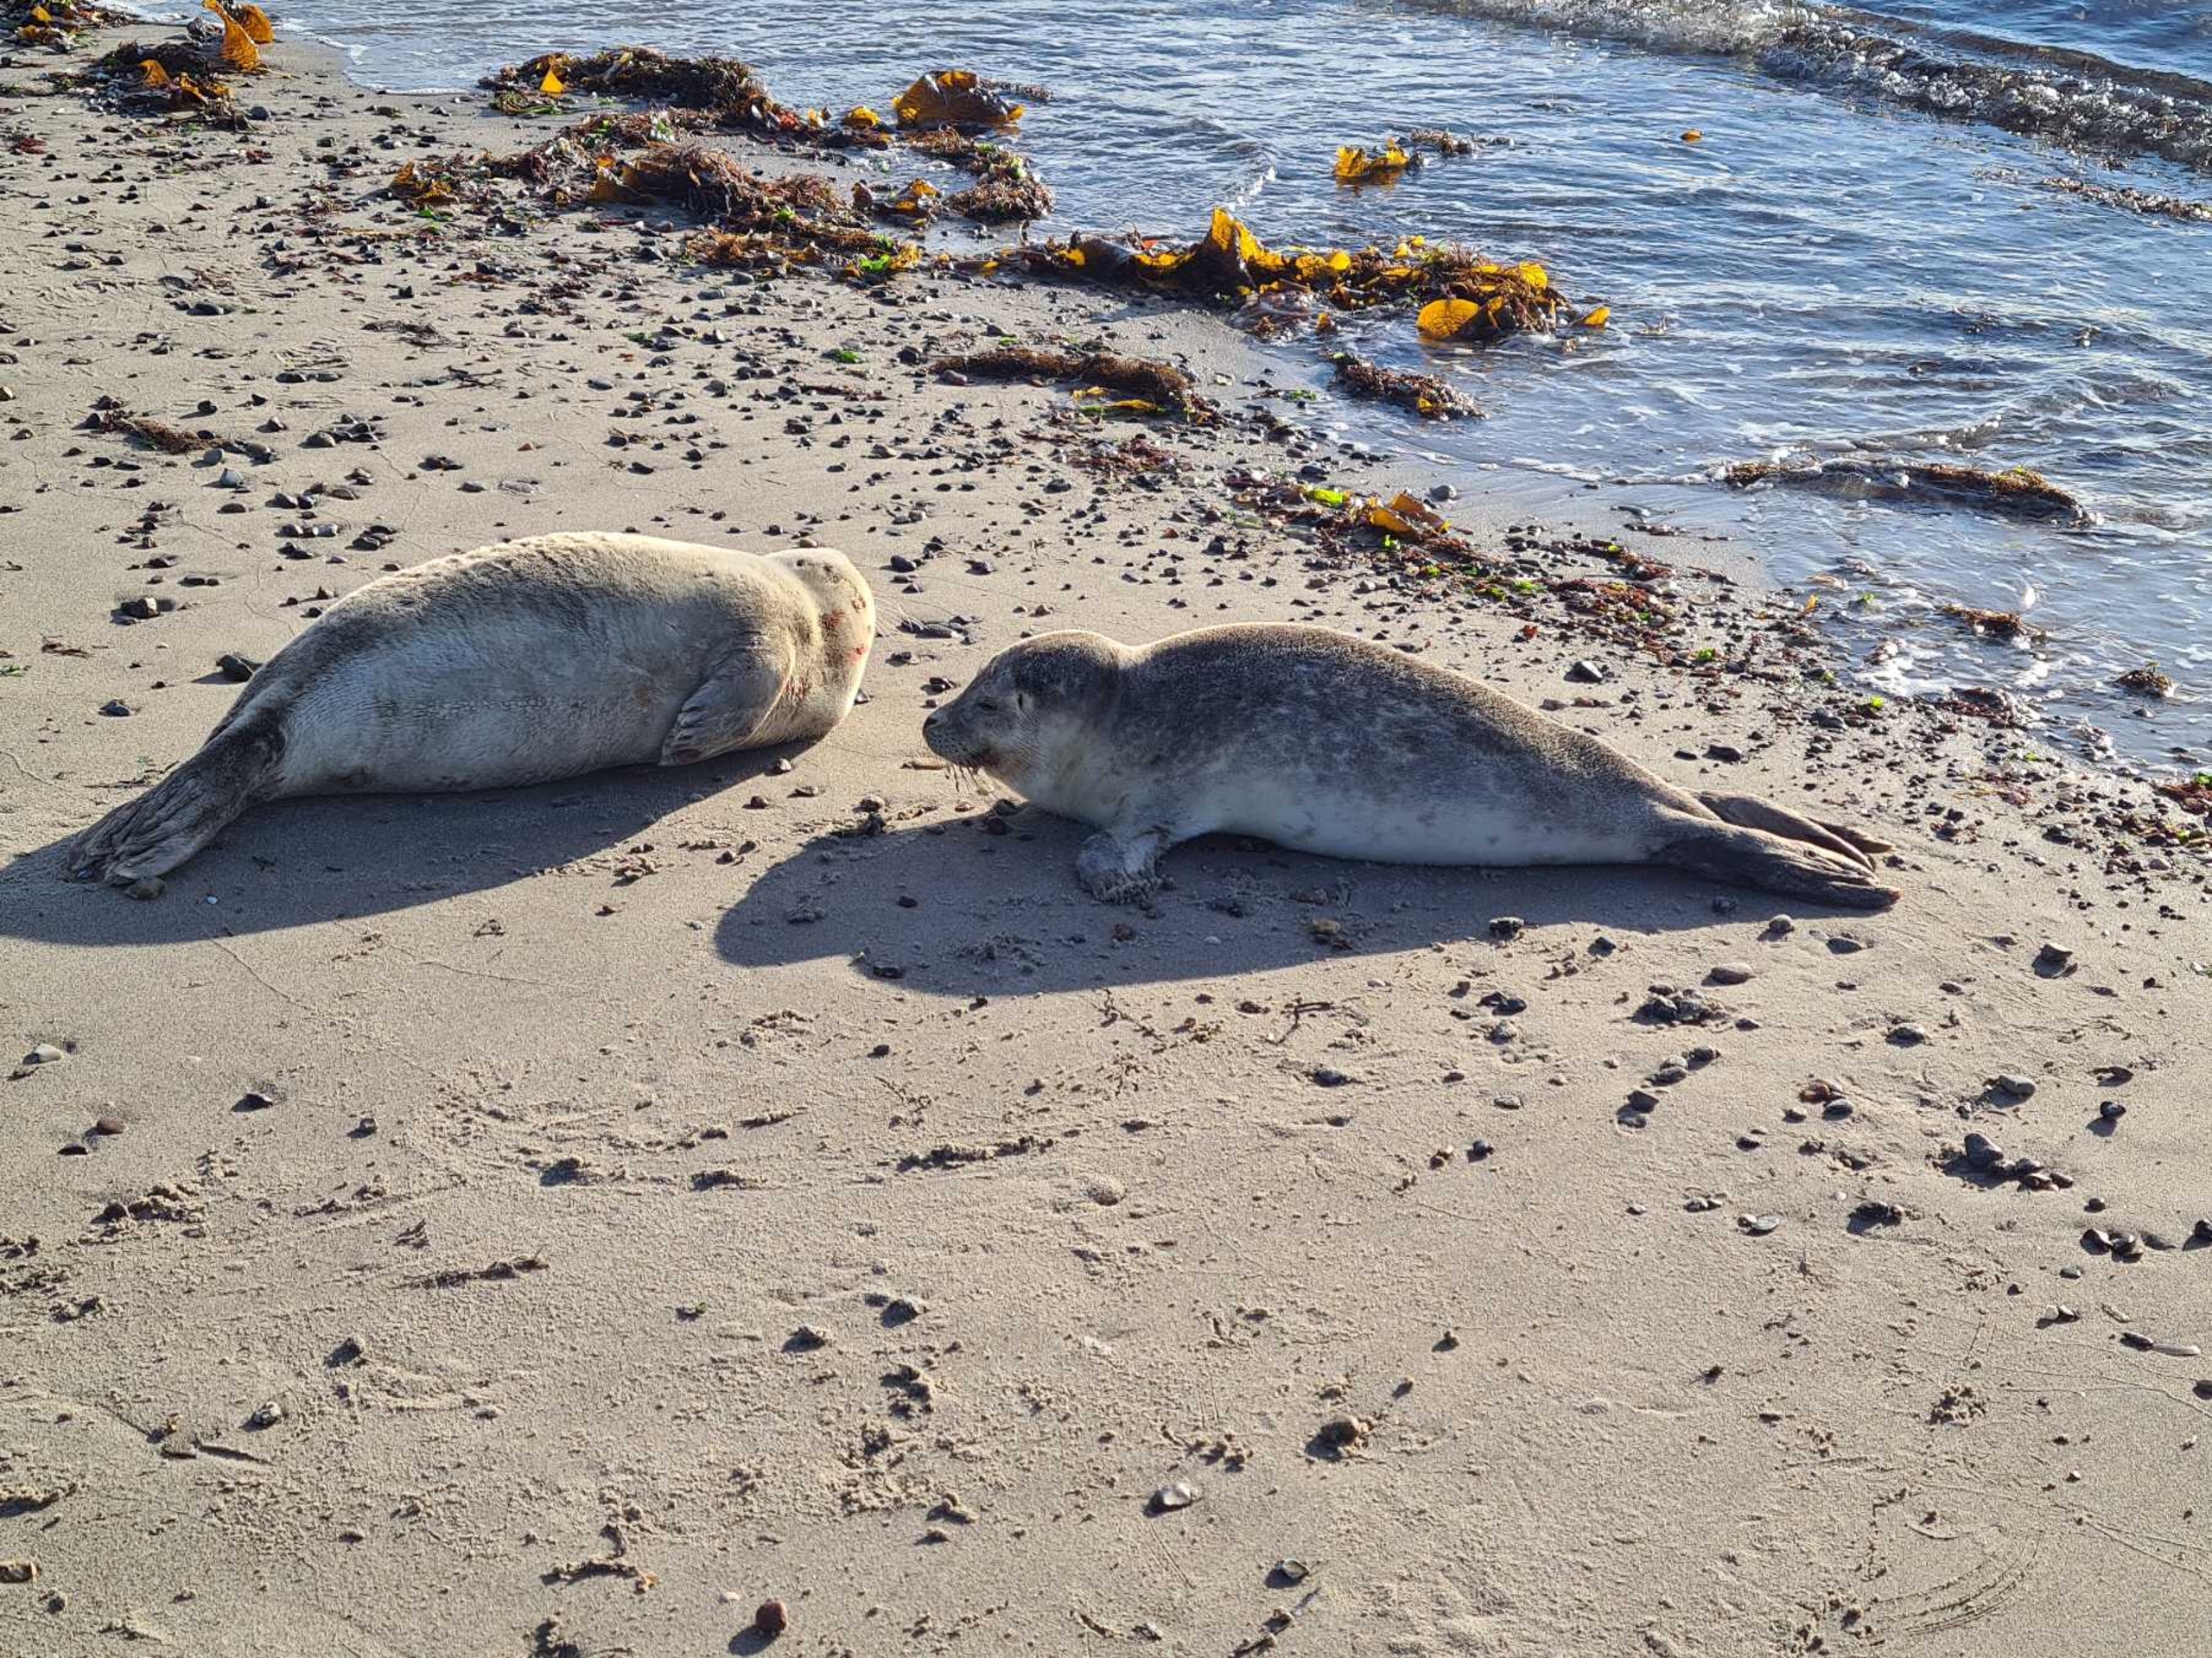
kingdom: Animalia
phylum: Chordata
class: Mammalia
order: Carnivora
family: Phocidae
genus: Phoca
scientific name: Phoca vitulina
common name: Spættet sæl
